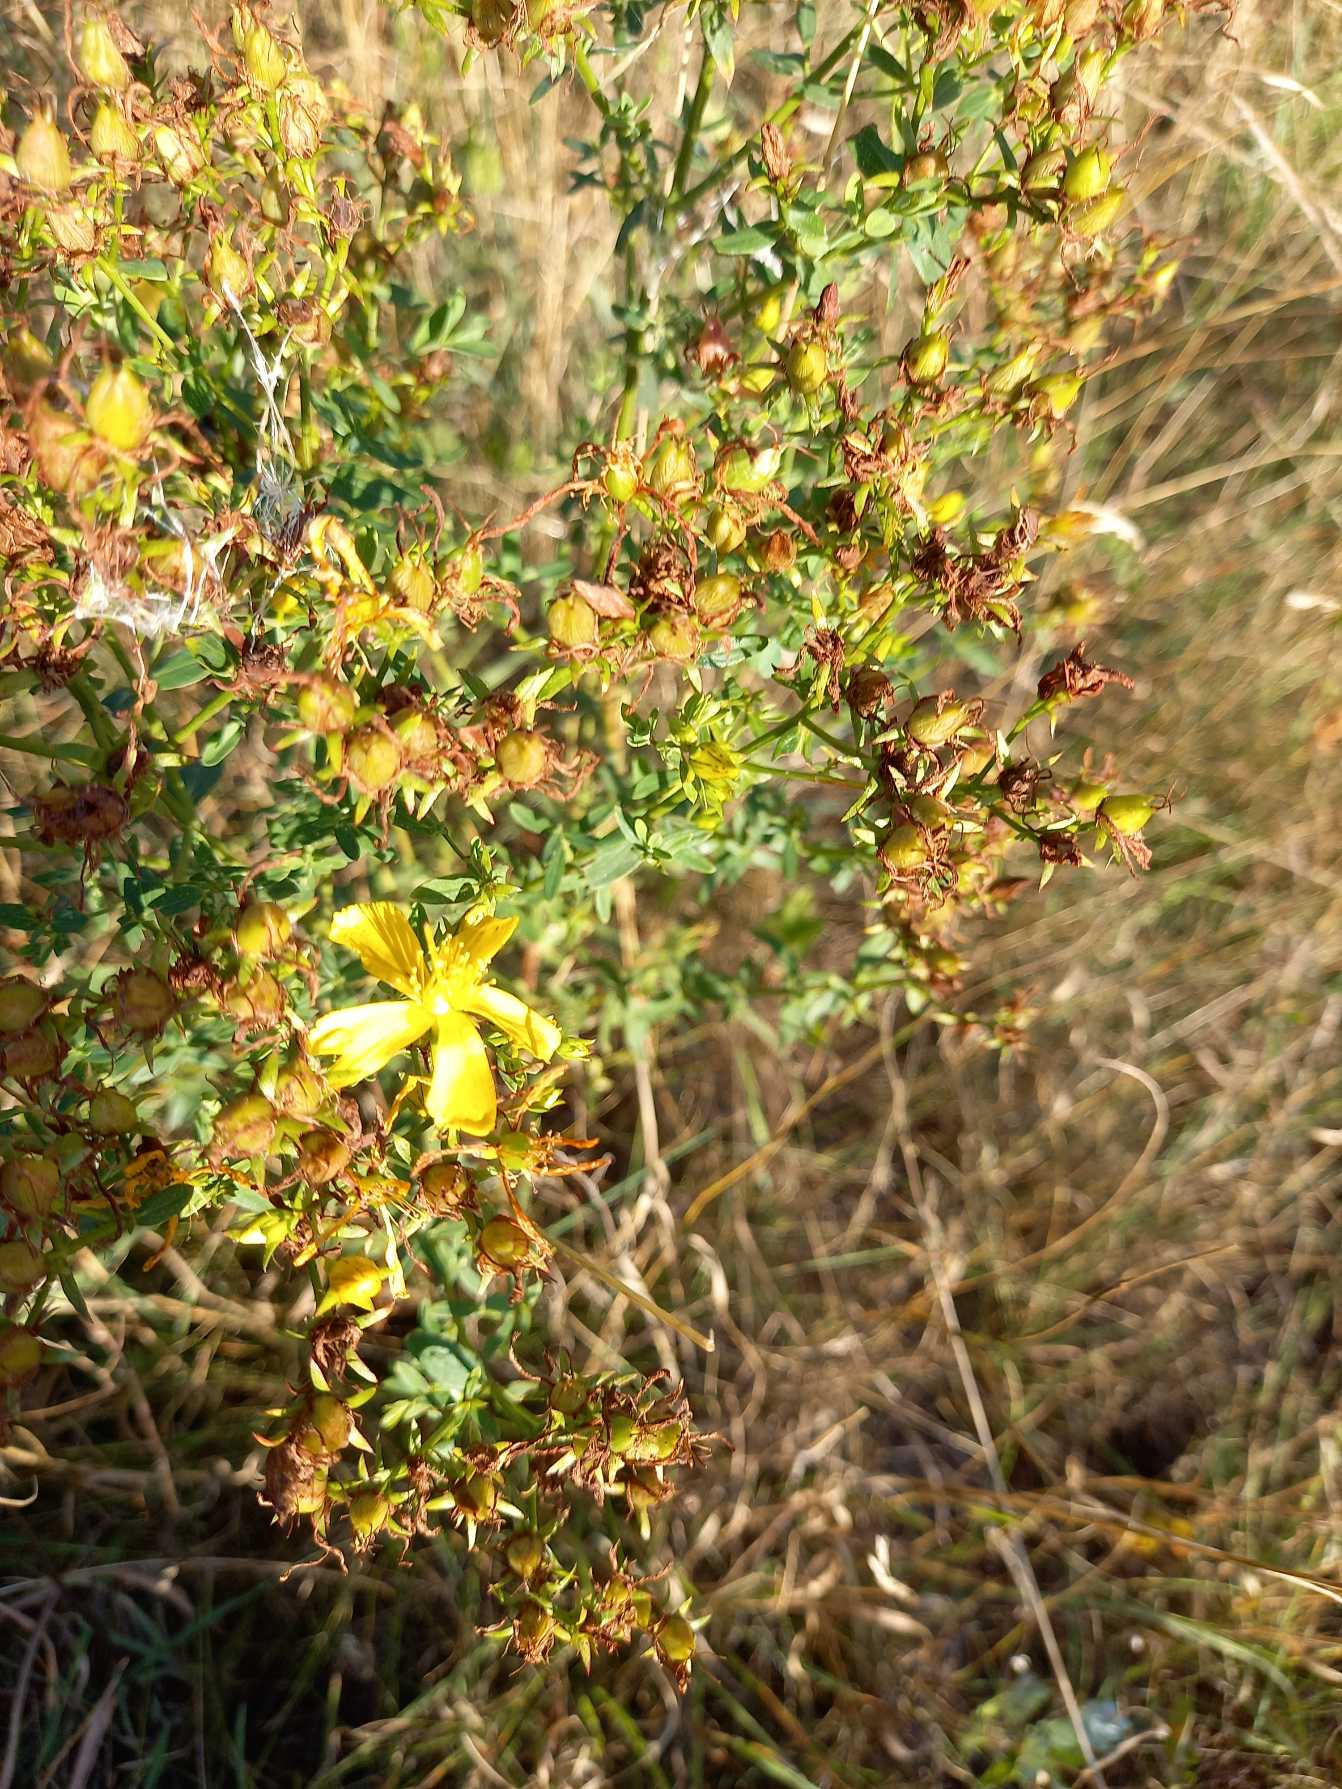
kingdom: Plantae
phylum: Tracheophyta
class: Magnoliopsida
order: Malpighiales
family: Hypericaceae
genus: Hypericum
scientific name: Hypericum perforatum
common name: Prikbladet perikon
